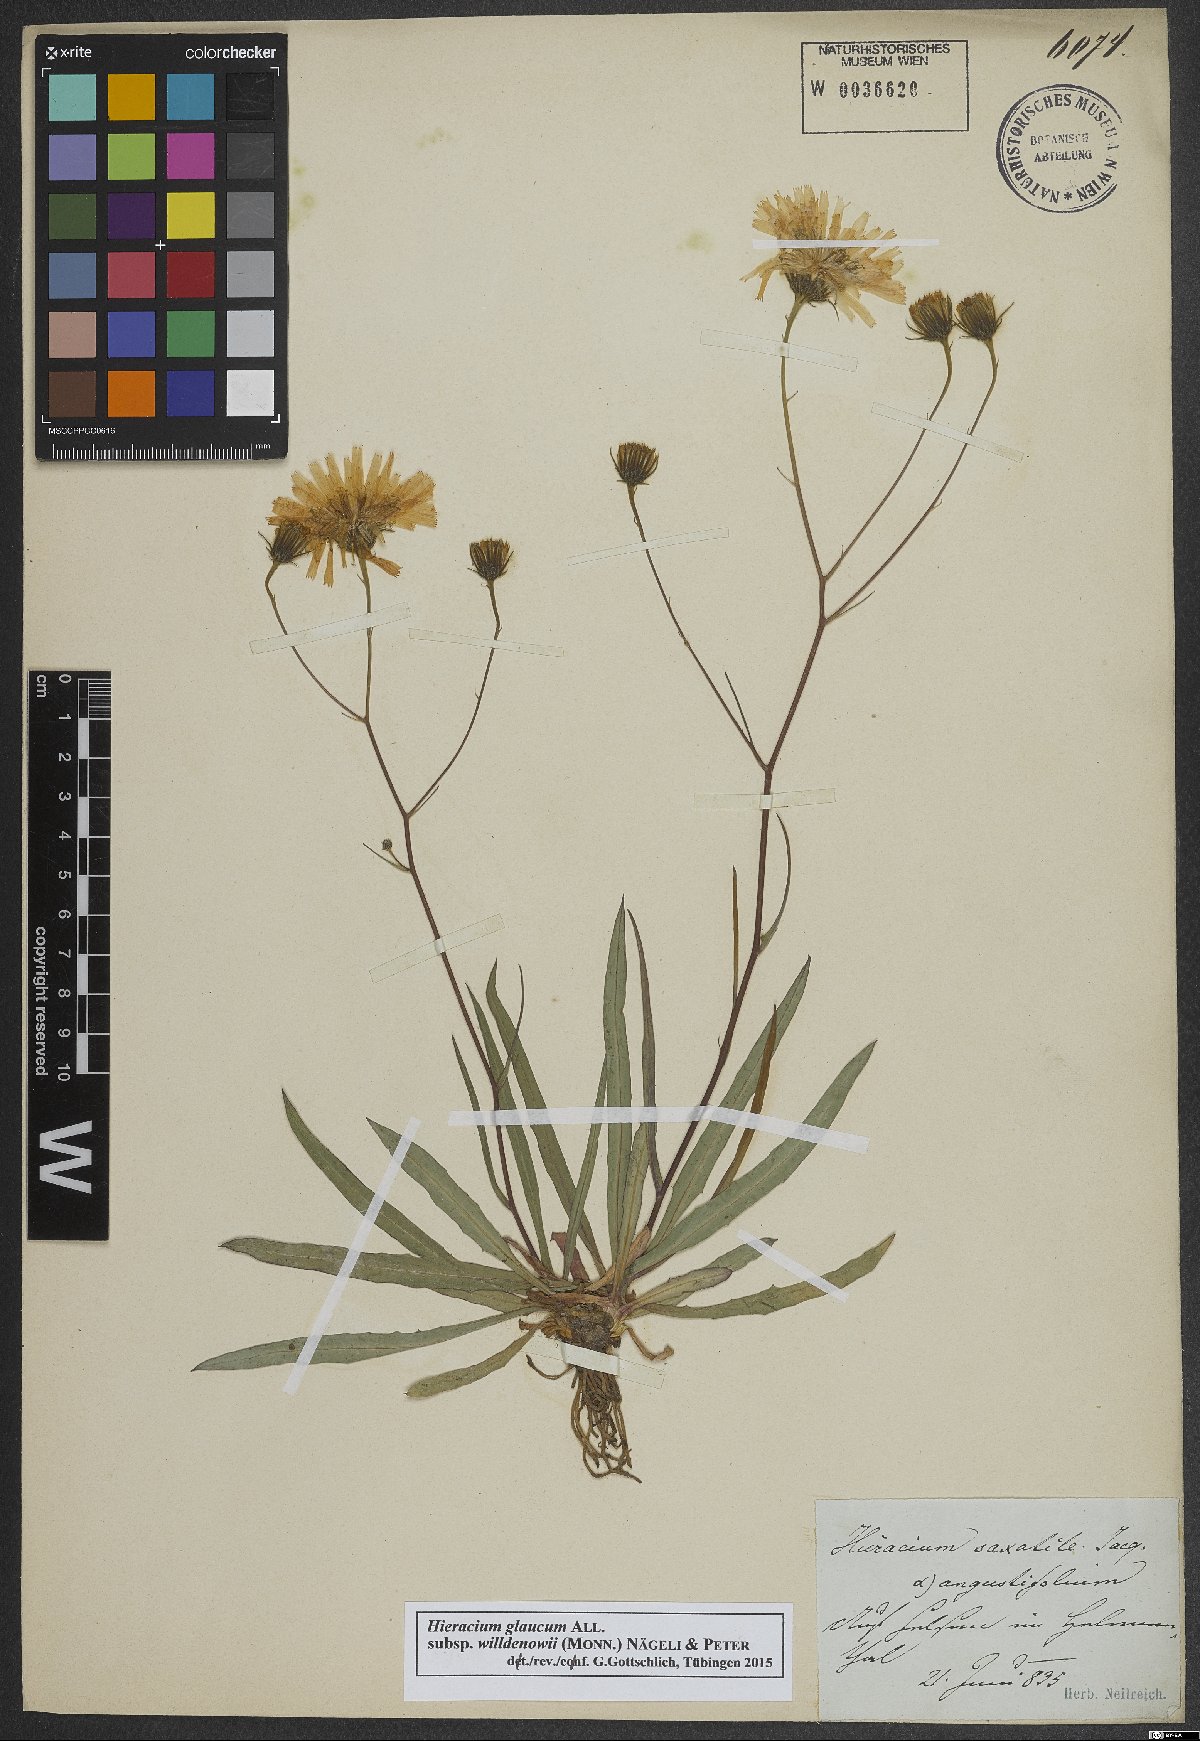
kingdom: Plantae
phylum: Tracheophyta
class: Magnoliopsida
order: Asterales
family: Asteraceae
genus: Hieracium
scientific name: Hieracium glaucum
